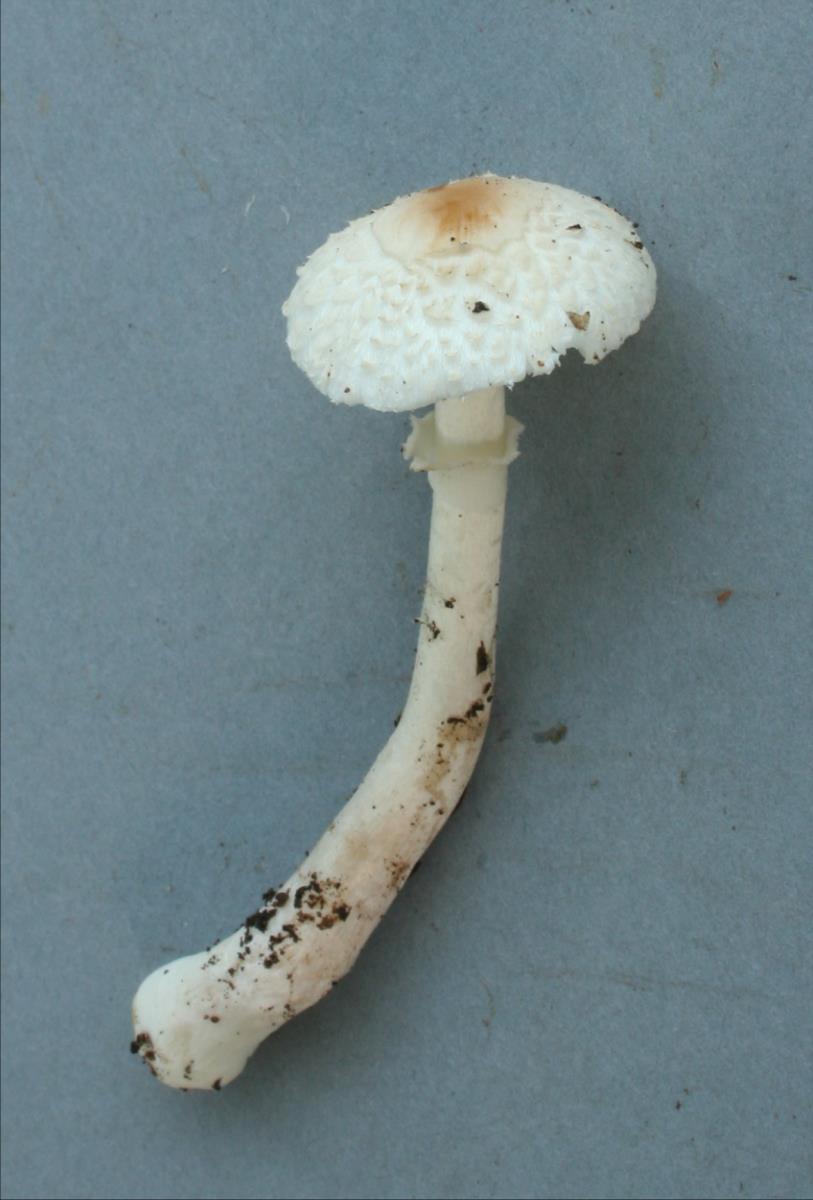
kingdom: Fungi
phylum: Basidiomycota
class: Agaricomycetes
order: Agaricales
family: Agaricaceae
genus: Leucoagaricus
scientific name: Leucoagaricus
